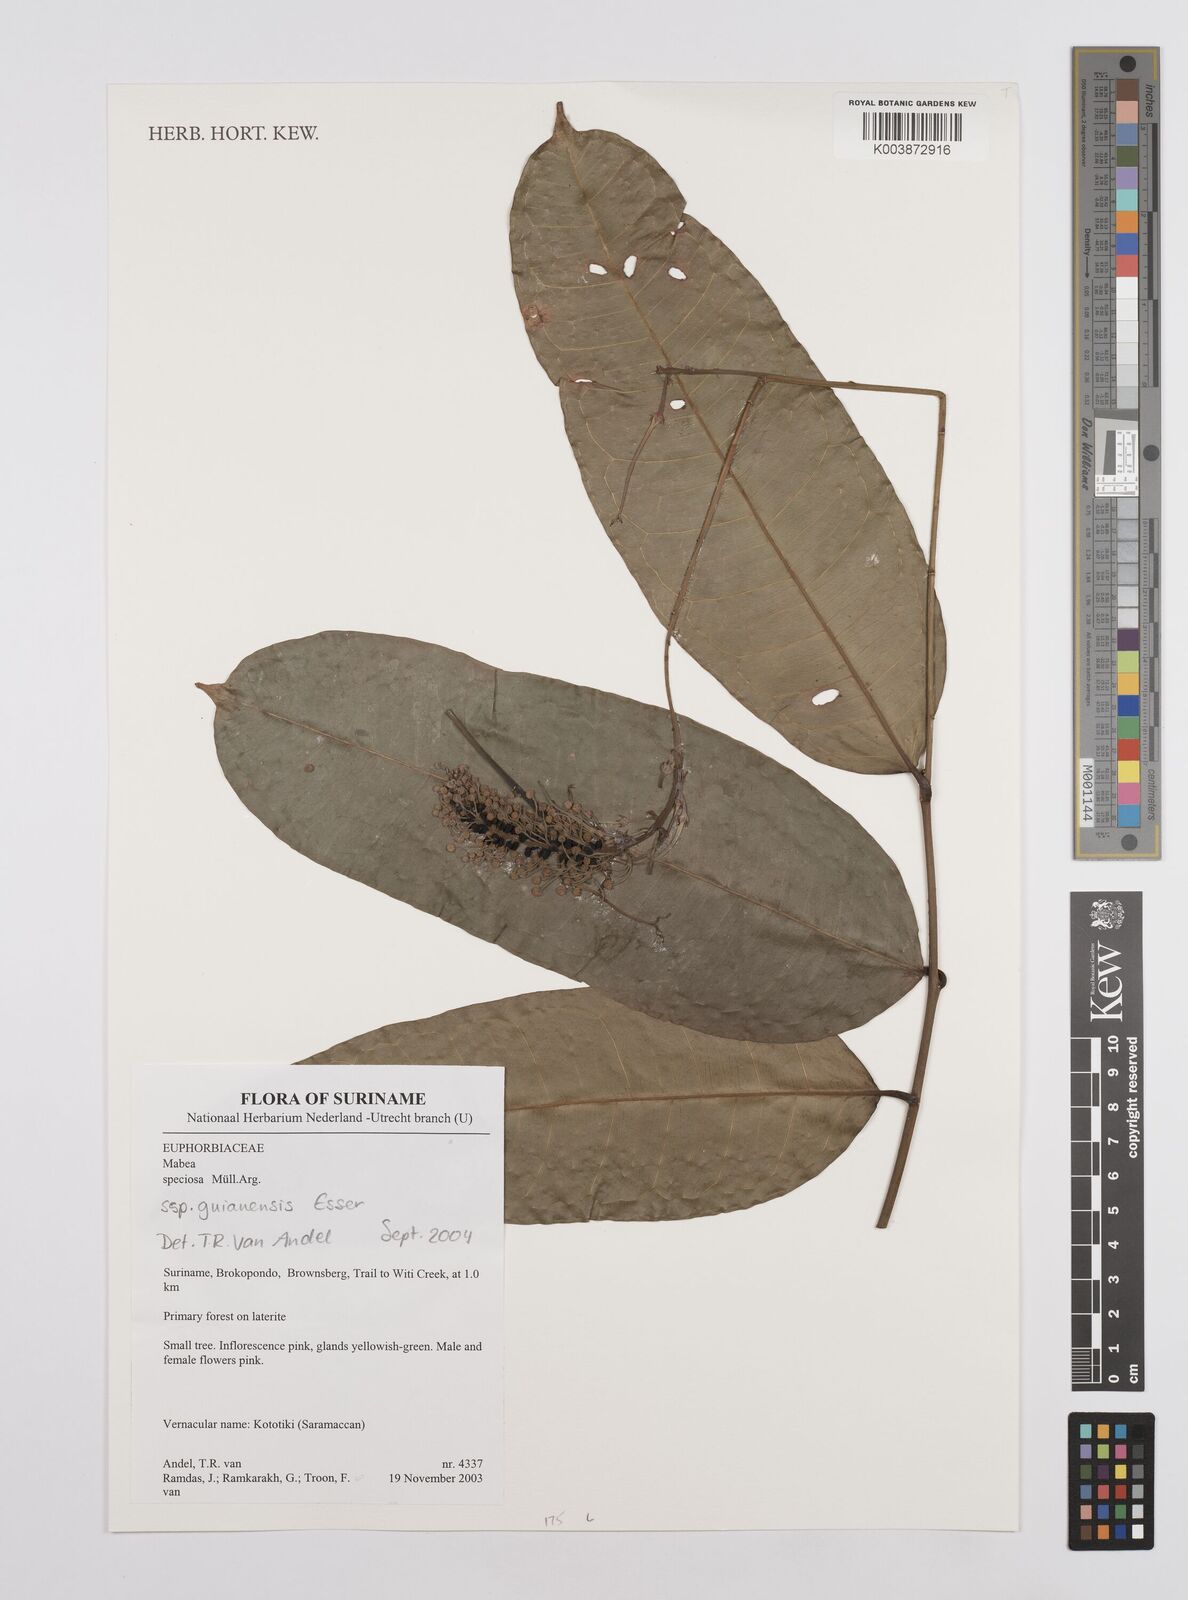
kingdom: Plantae
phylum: Tracheophyta
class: Magnoliopsida
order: Malpighiales
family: Euphorbiaceae
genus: Mabea
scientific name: Mabea speciosa
